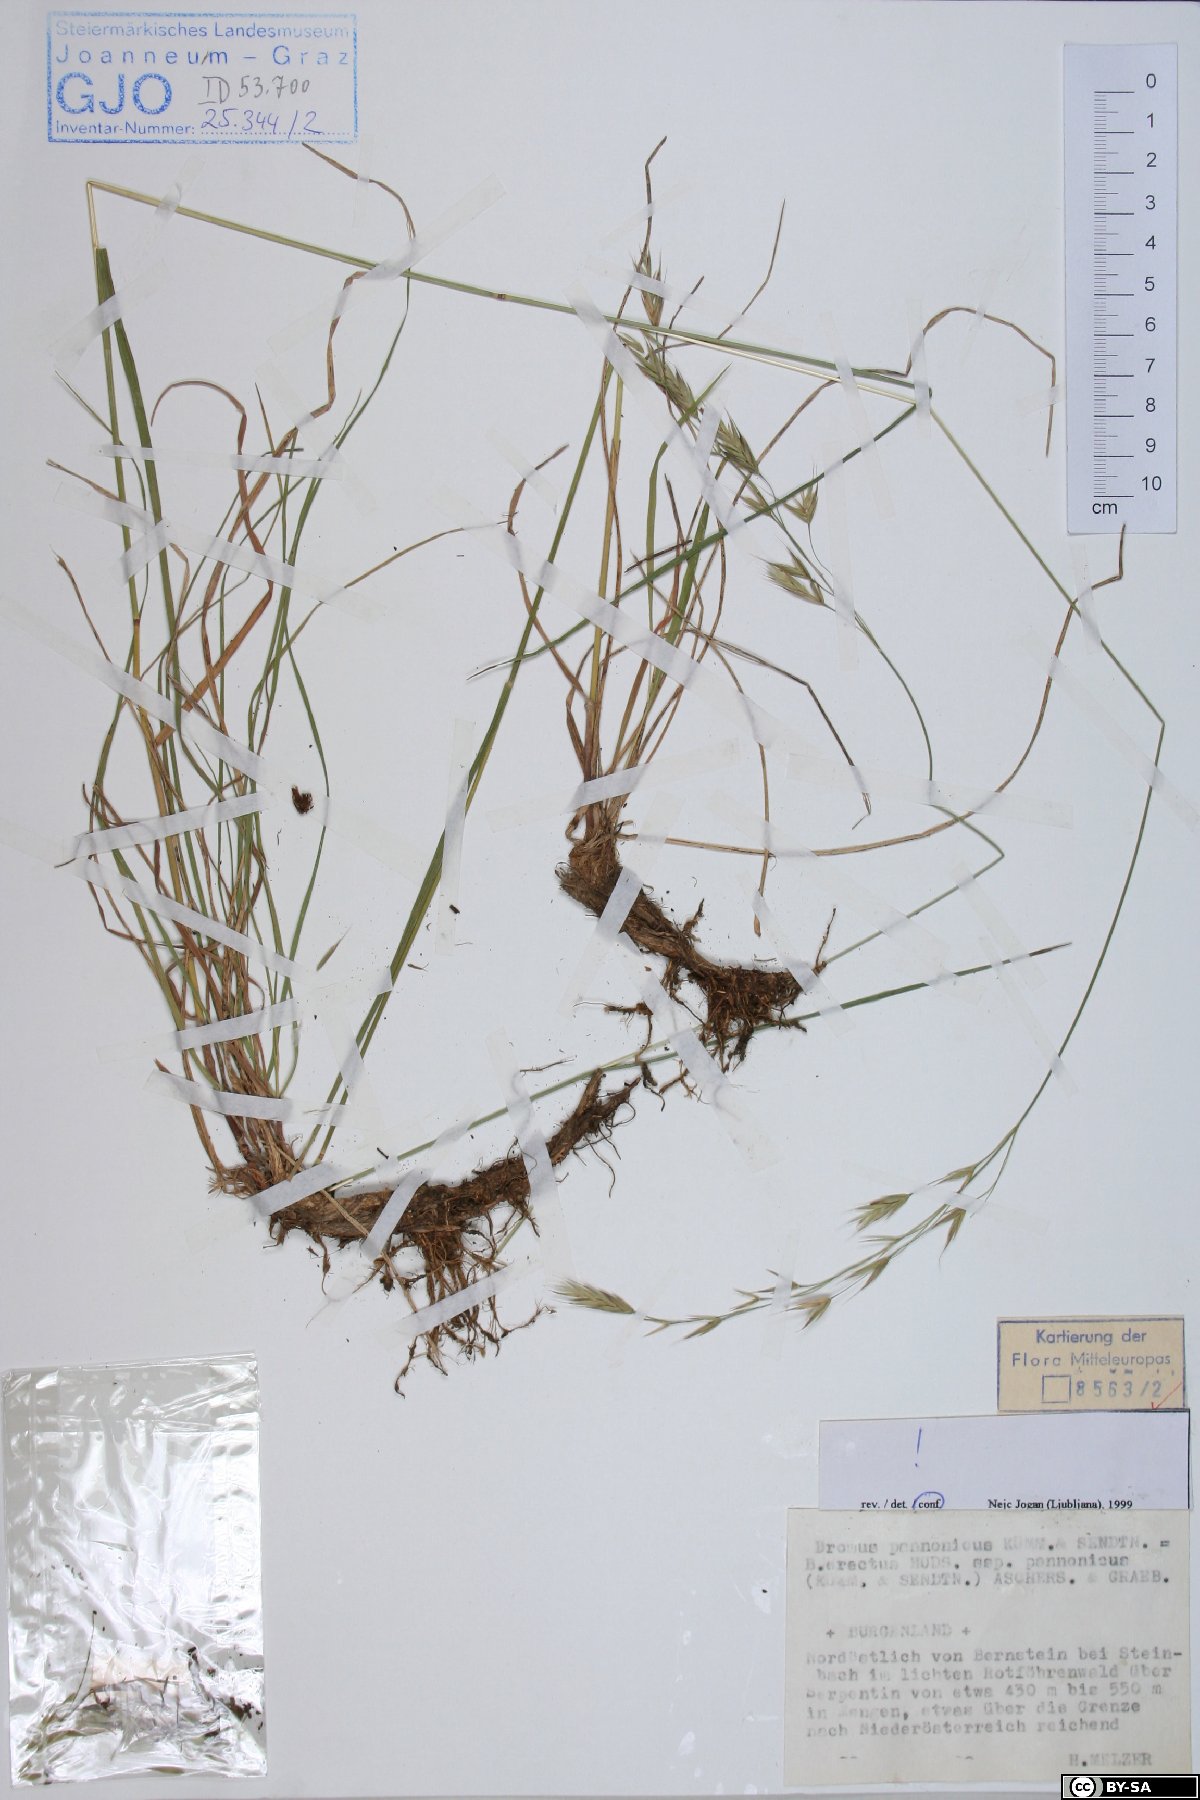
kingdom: Plantae
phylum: Tracheophyta
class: Liliopsida
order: Poales
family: Poaceae
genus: Bromus
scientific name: Bromus pannonicus
